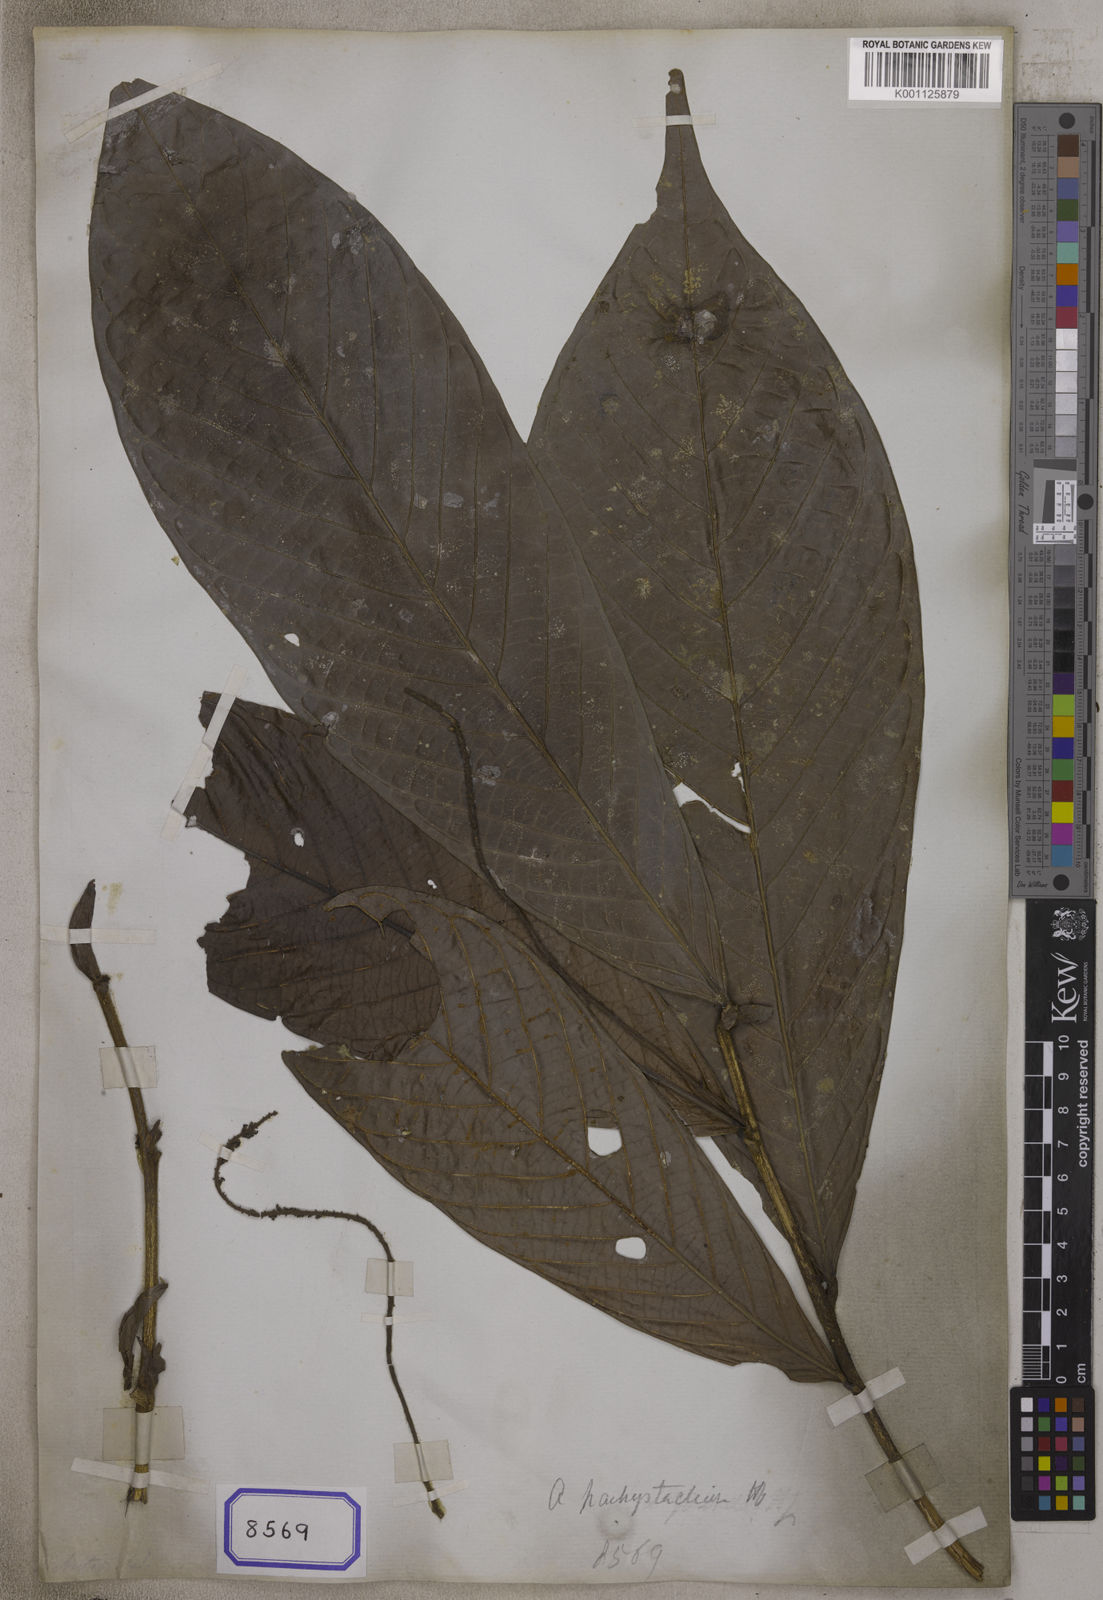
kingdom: Plantae
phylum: Tracheophyta
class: Magnoliopsida
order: Malpighiales
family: Phyllanthaceae
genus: Antidesma
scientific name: Antidesma
